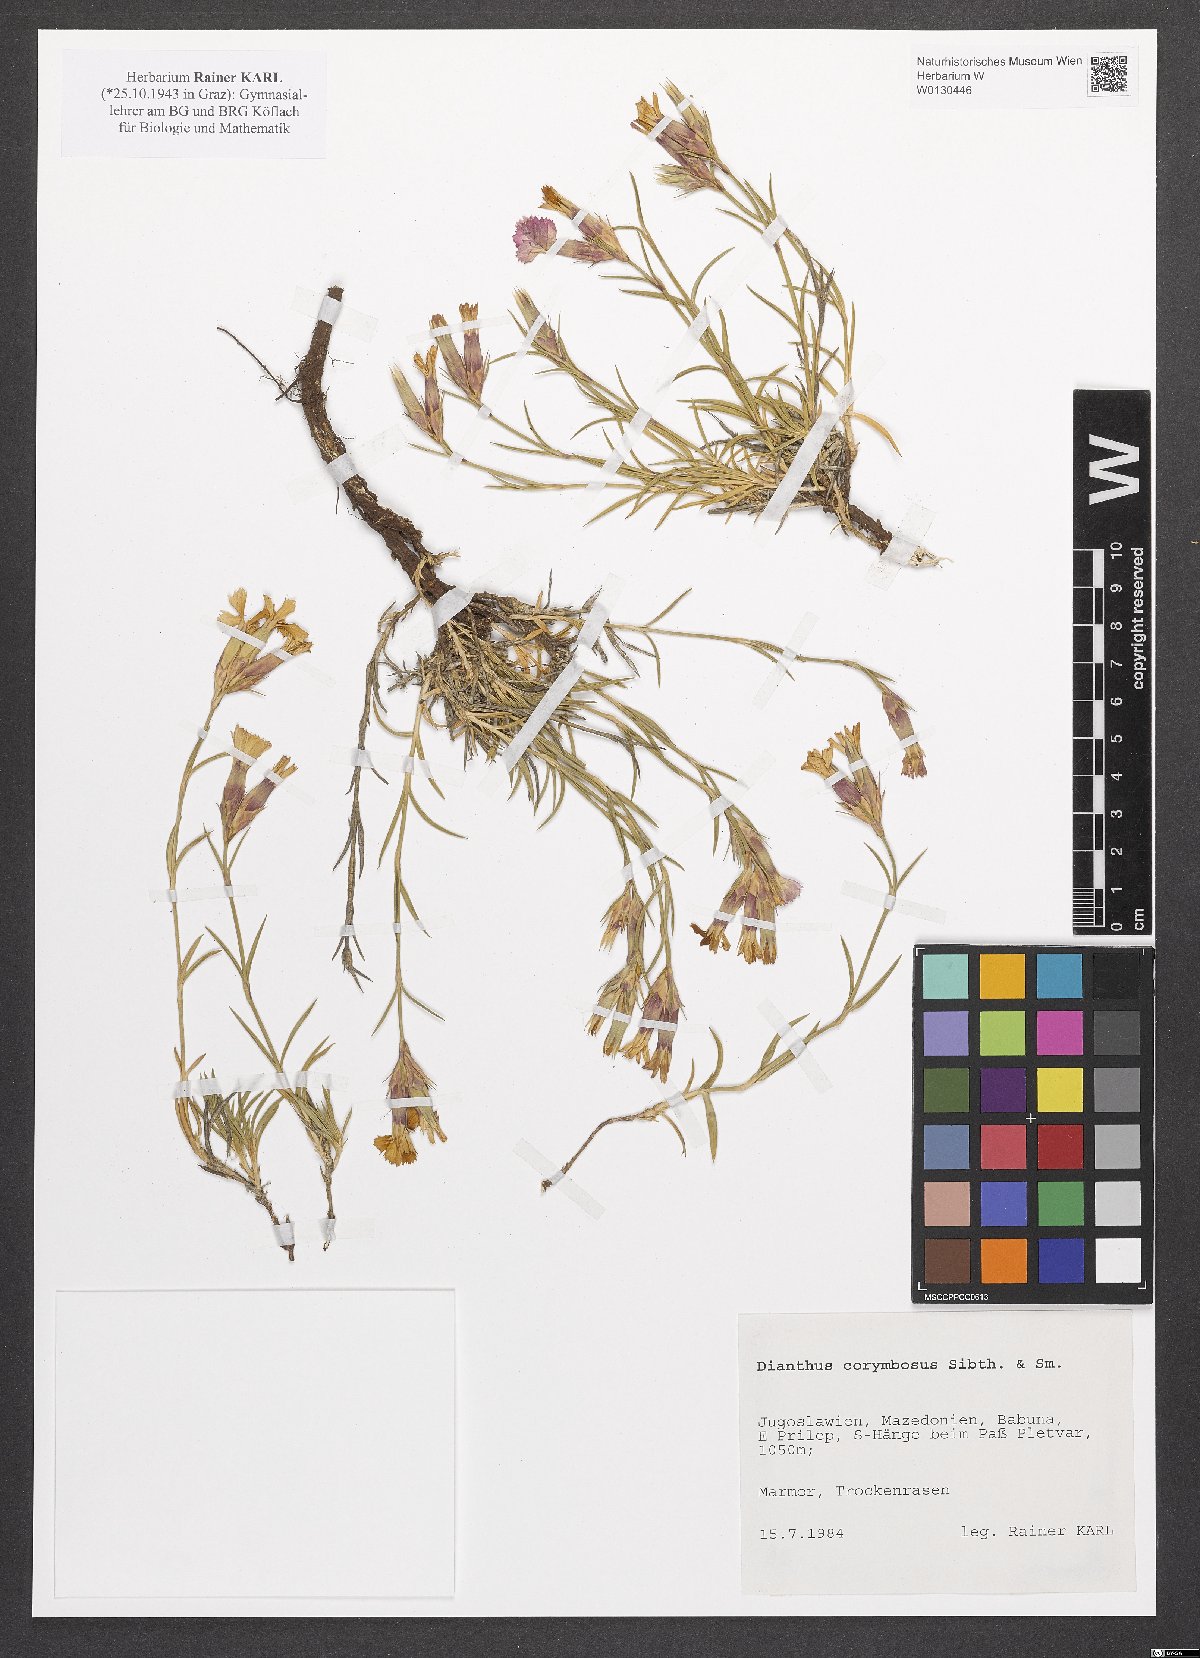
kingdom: Plantae
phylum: Tracheophyta
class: Magnoliopsida
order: Caryophyllales
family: Caryophyllaceae
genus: Dianthus
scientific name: Dianthus corymbosus
